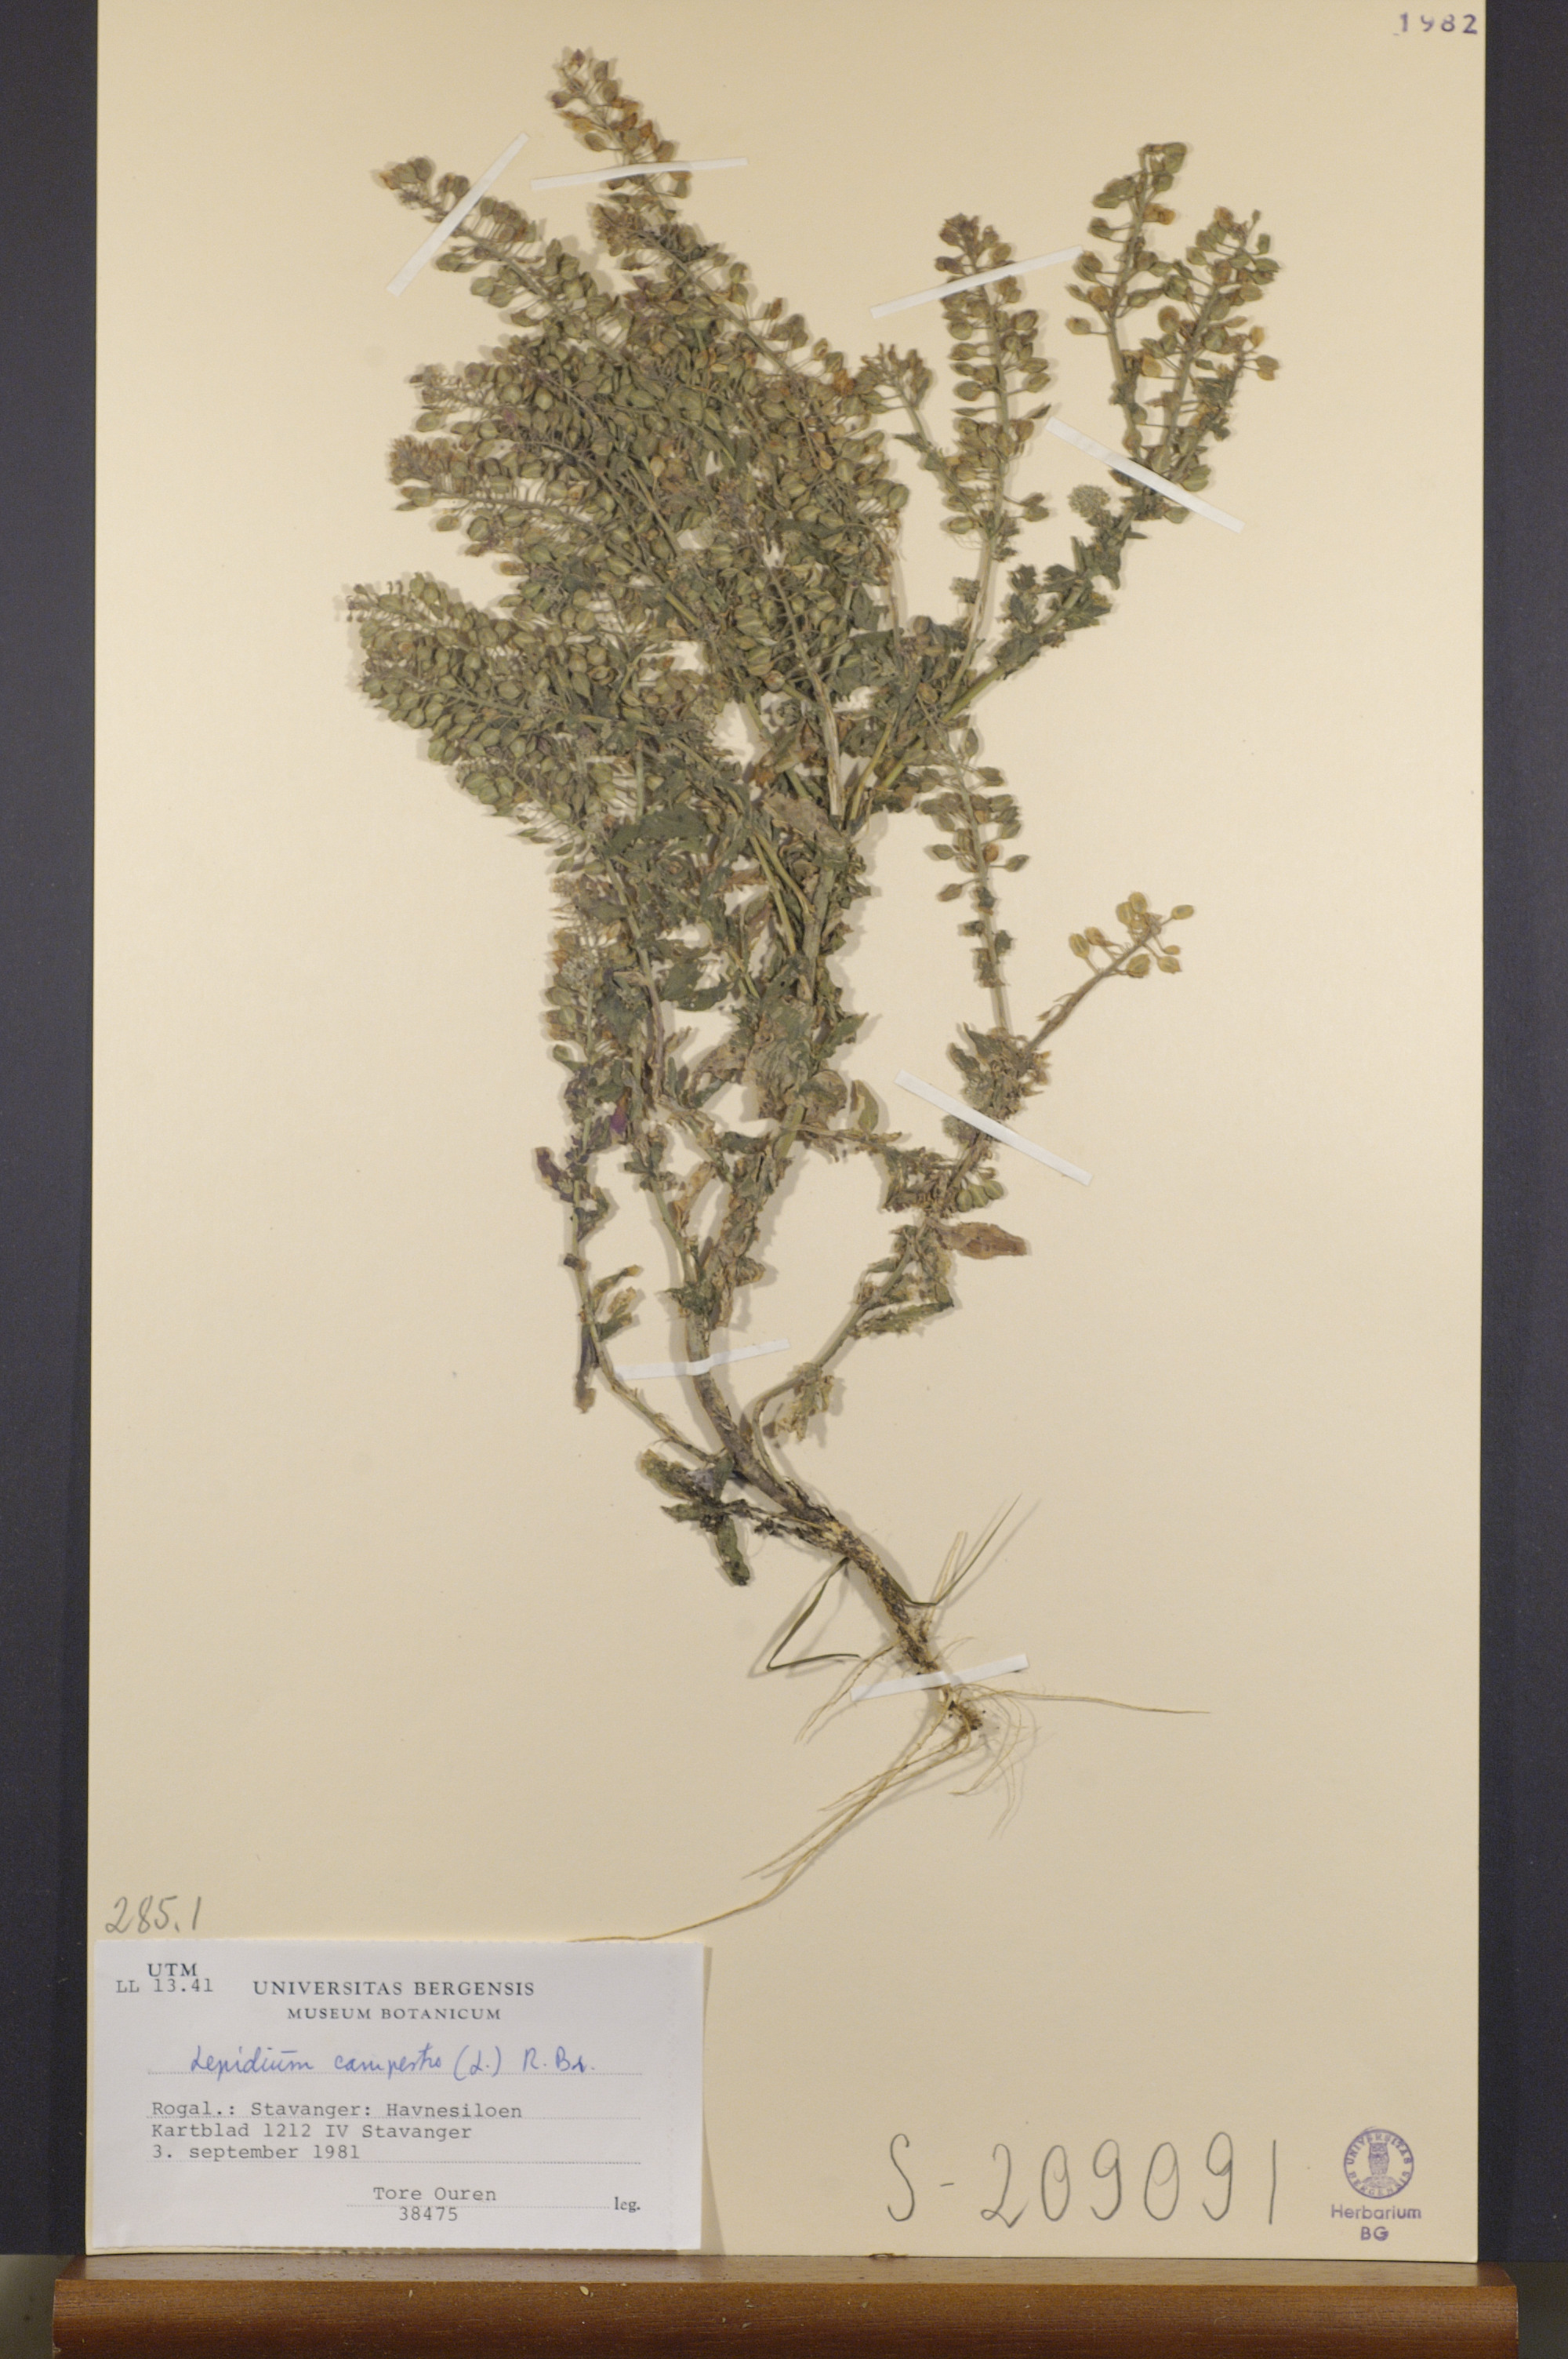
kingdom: Plantae
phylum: Tracheophyta
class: Magnoliopsida
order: Brassicales
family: Brassicaceae
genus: Lepidium
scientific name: Lepidium campestre
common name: Field pepperwort
